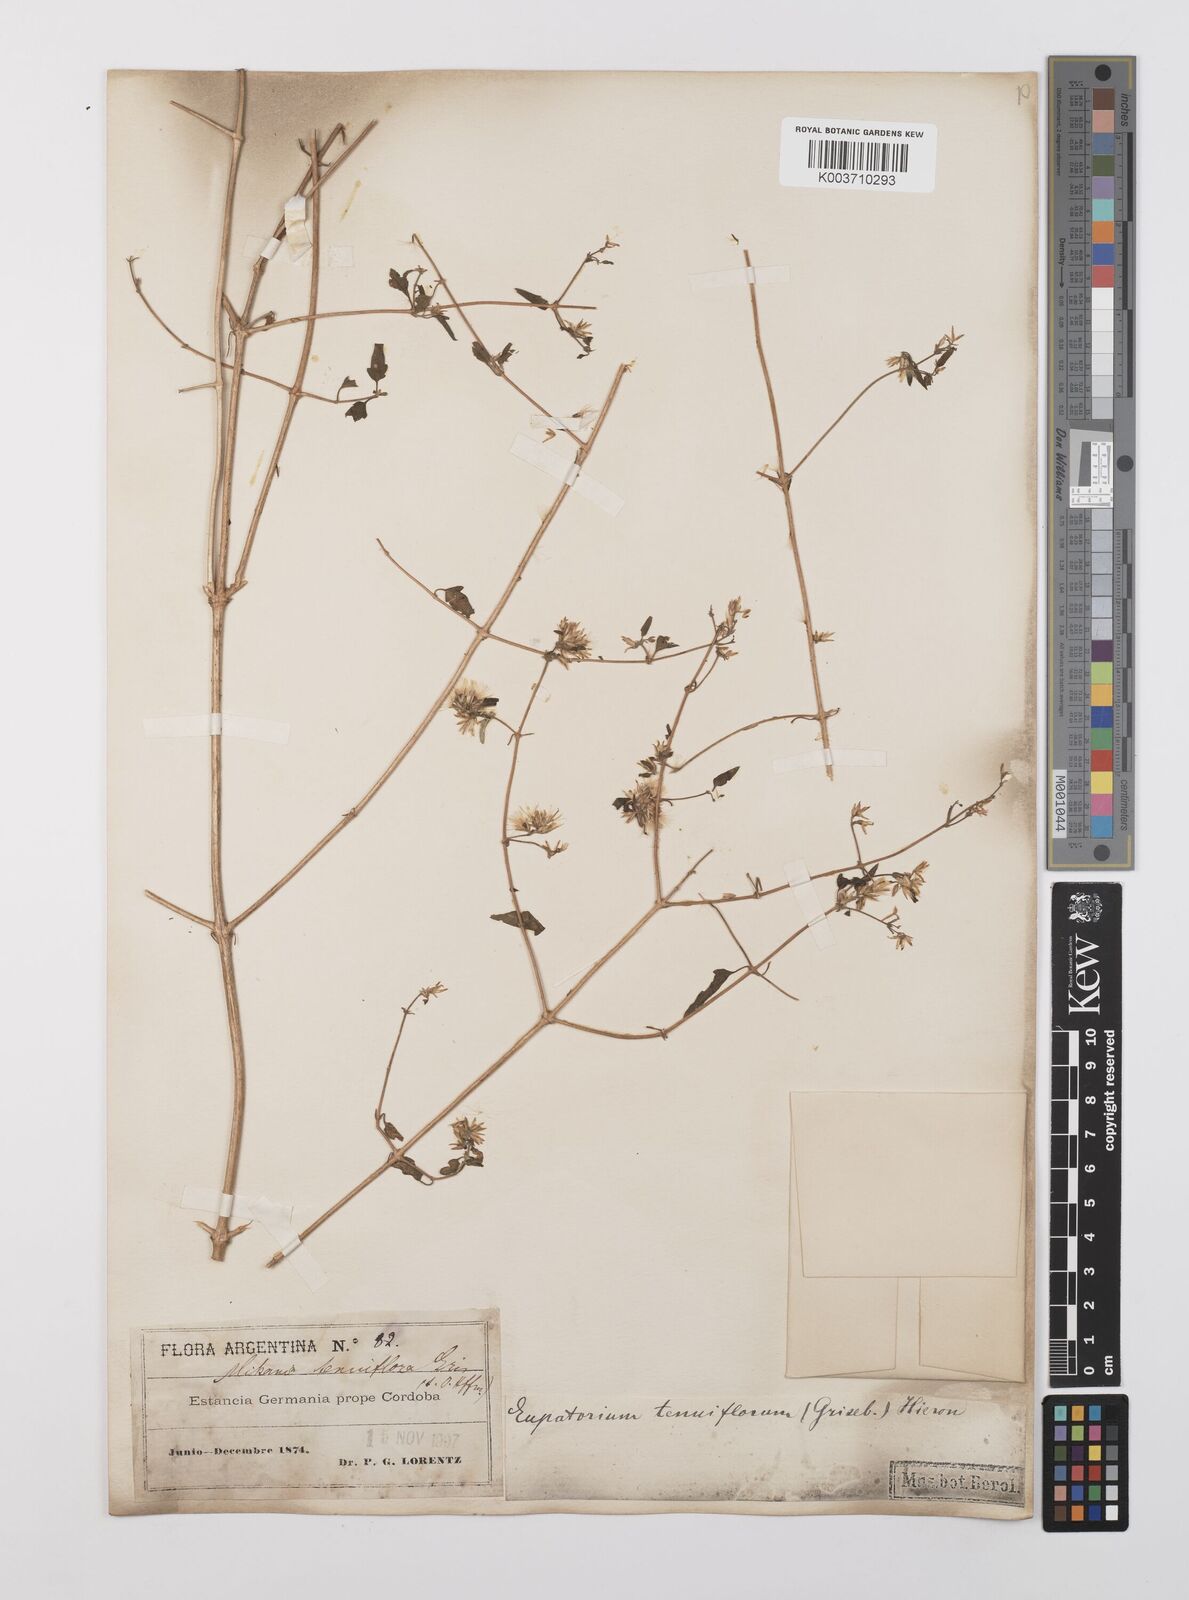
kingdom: Plantae
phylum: Tracheophyta
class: Magnoliopsida
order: Asterales
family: Asteraceae
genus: Austrobrickellia
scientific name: Austrobrickellia arnottii
